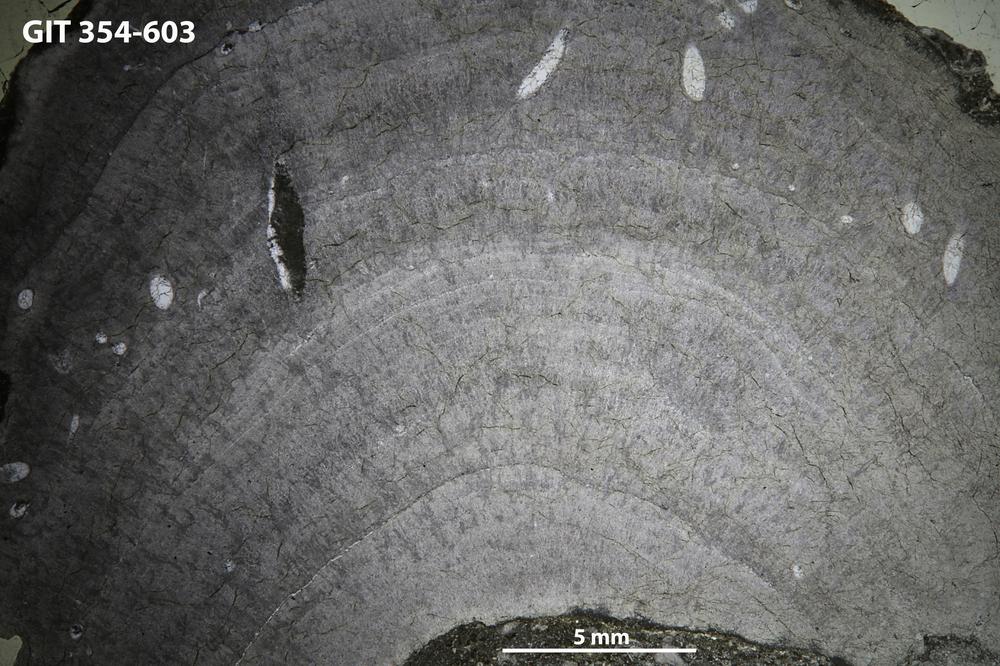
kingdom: Animalia
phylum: Porifera
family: Densastromatidae
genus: Densastroma
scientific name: Densastroma Actinostroma pexisum
